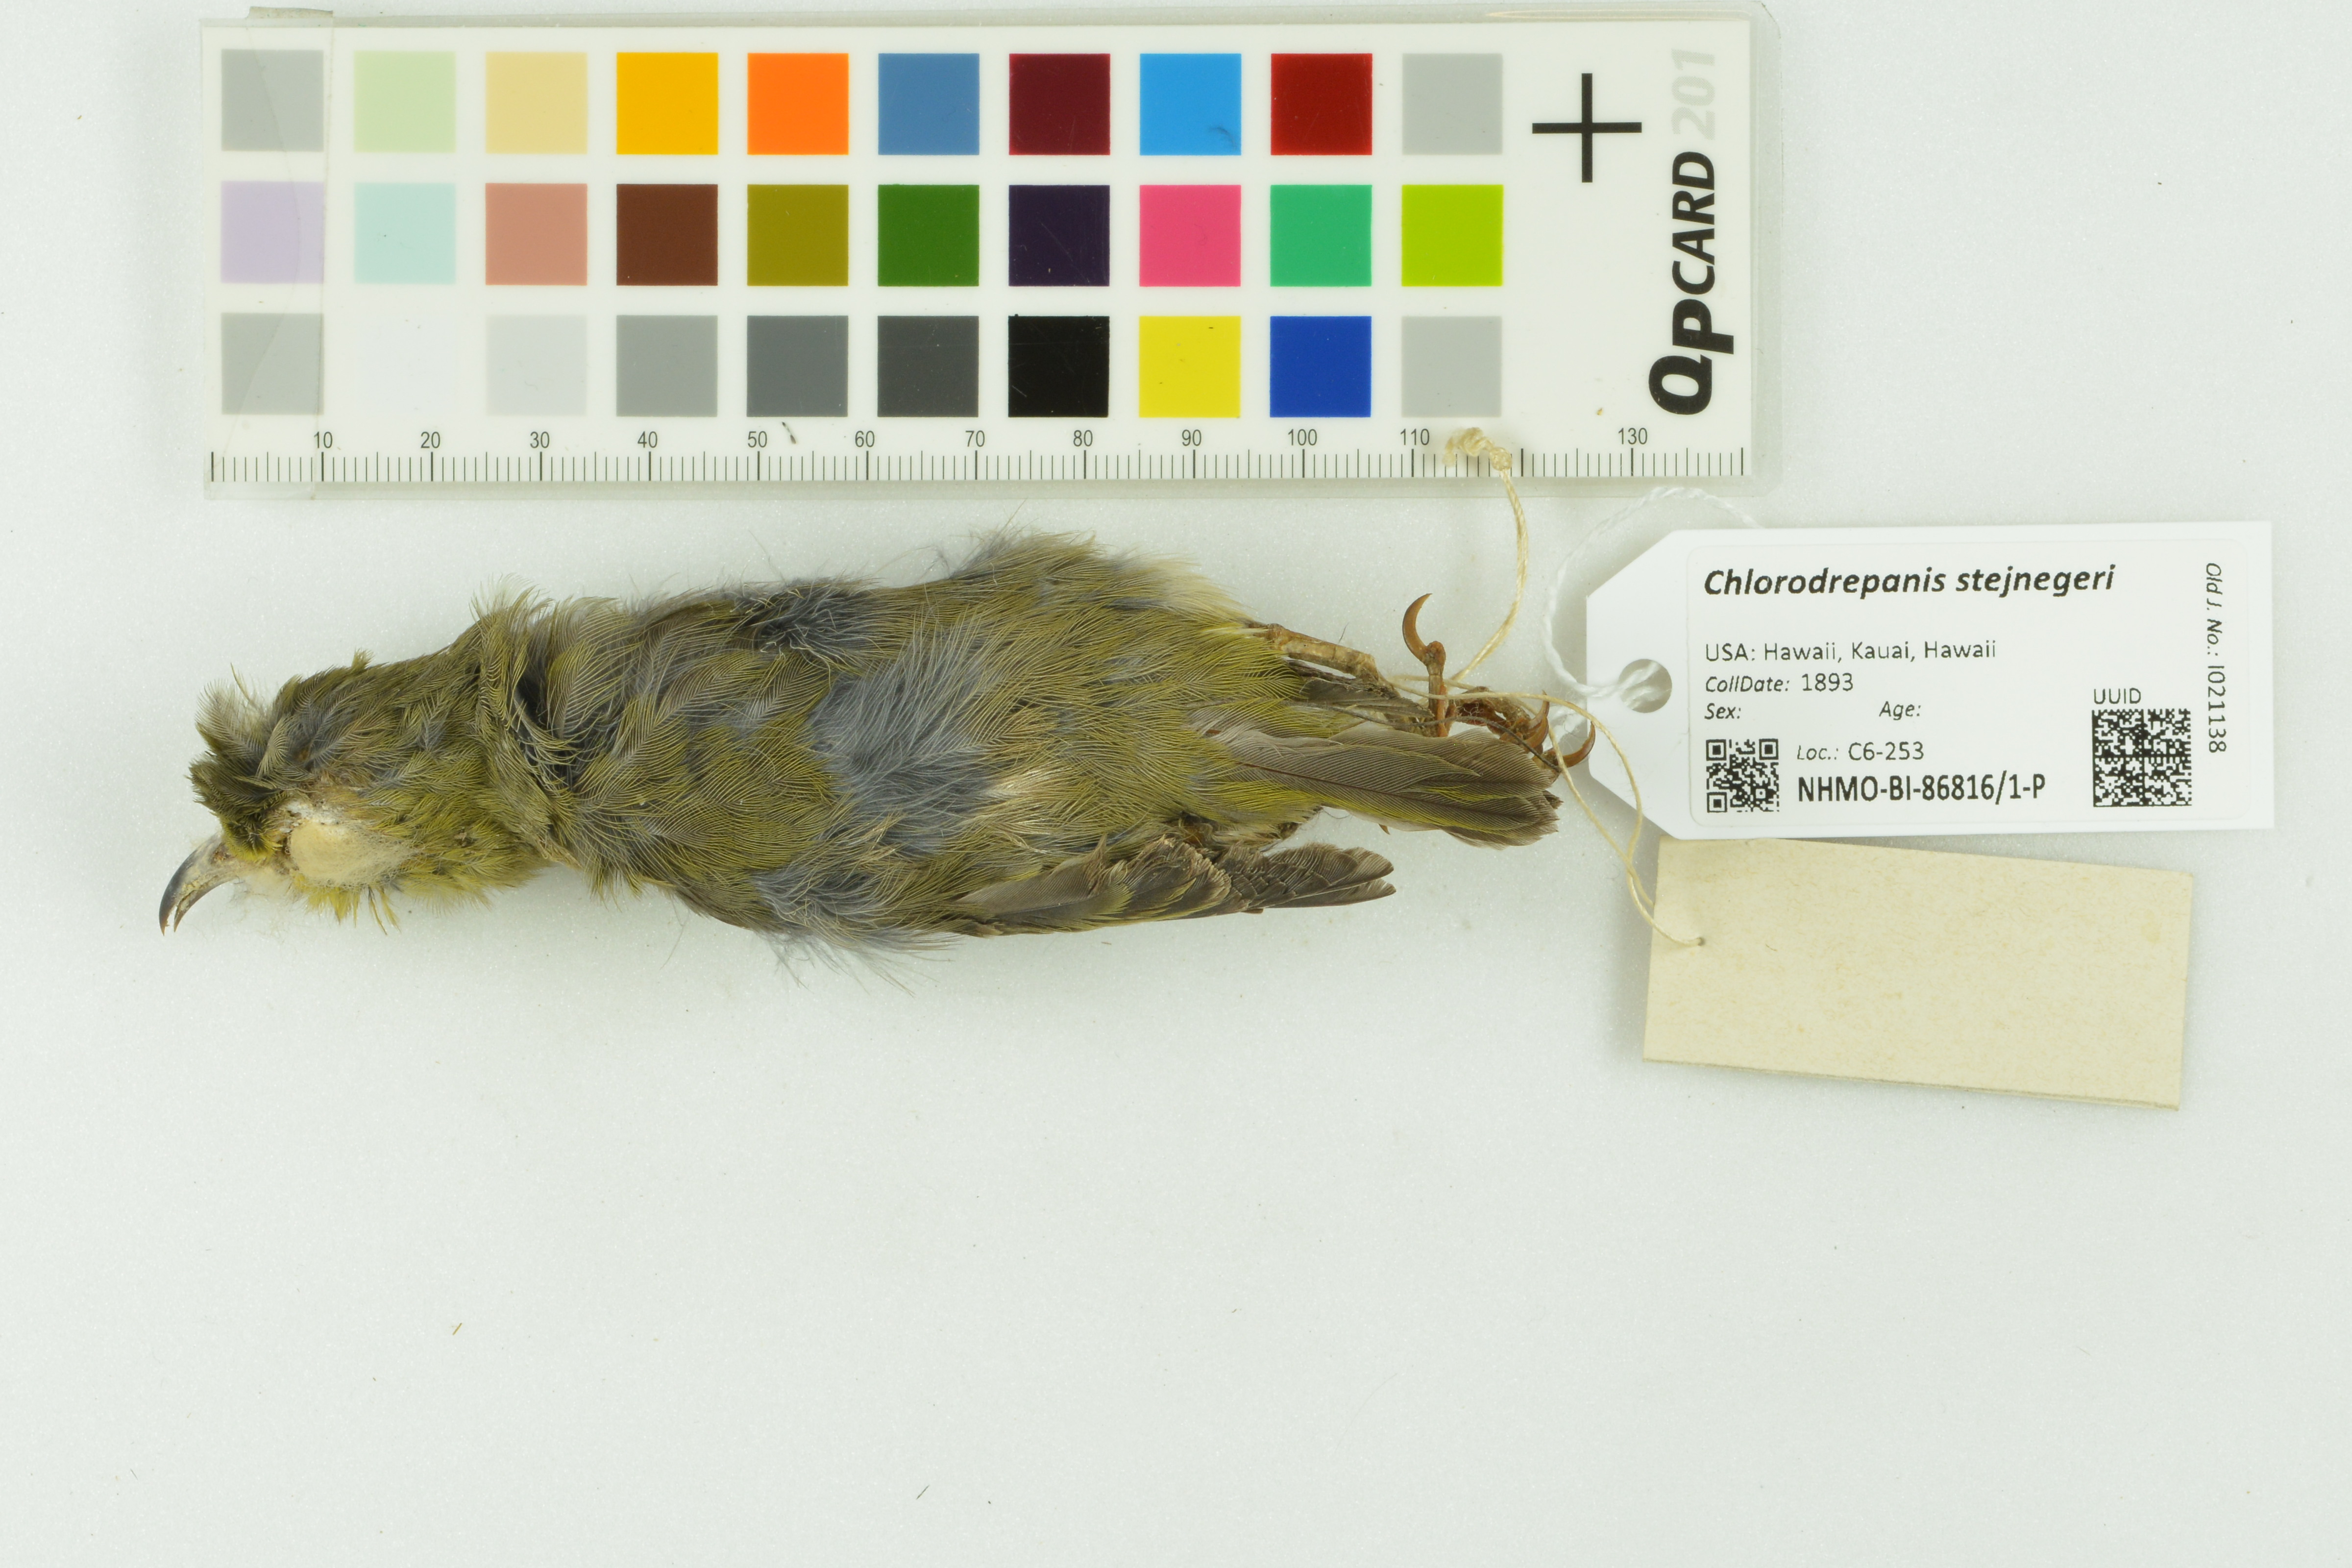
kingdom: Animalia
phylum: Chordata
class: Aves
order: Passeriformes
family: Fringillidae
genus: Chlorodrepanis
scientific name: Chlorodrepanis stejnegeri
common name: Kauai amakihi
